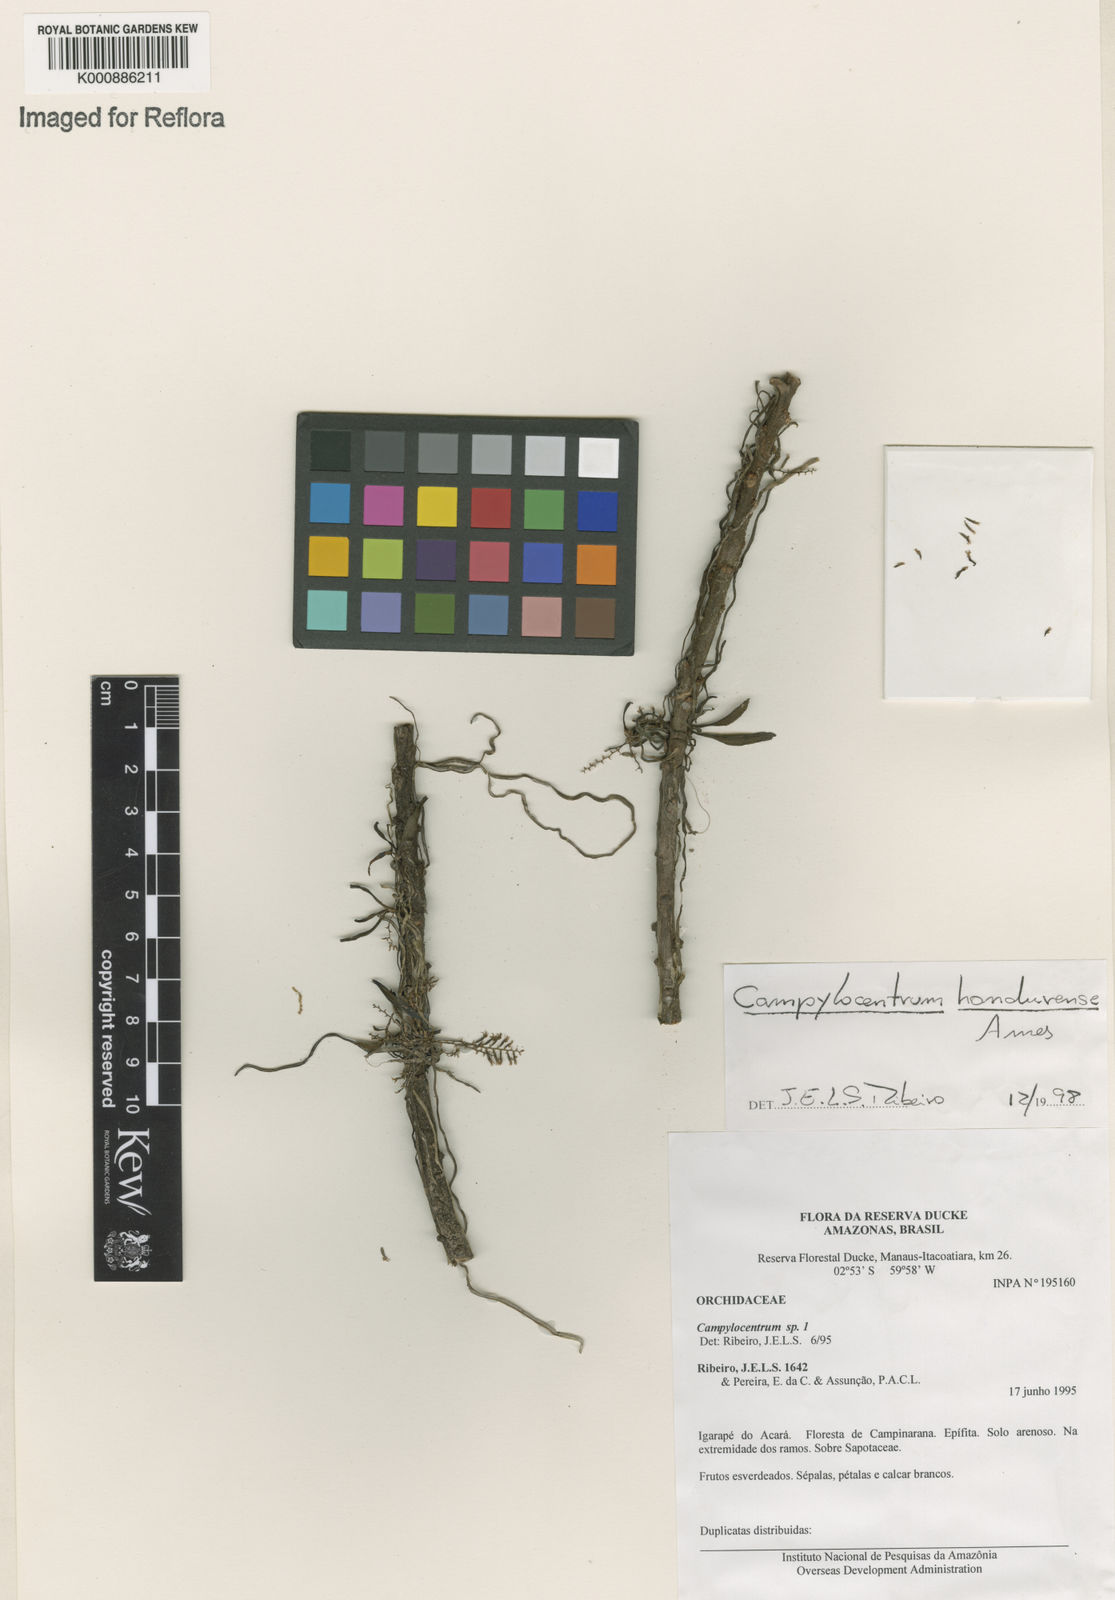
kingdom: Plantae
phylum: Tracheophyta
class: Liliopsida
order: Asparagales
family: Orchidaceae
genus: Campylocentrum
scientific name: Campylocentrum hondurense
